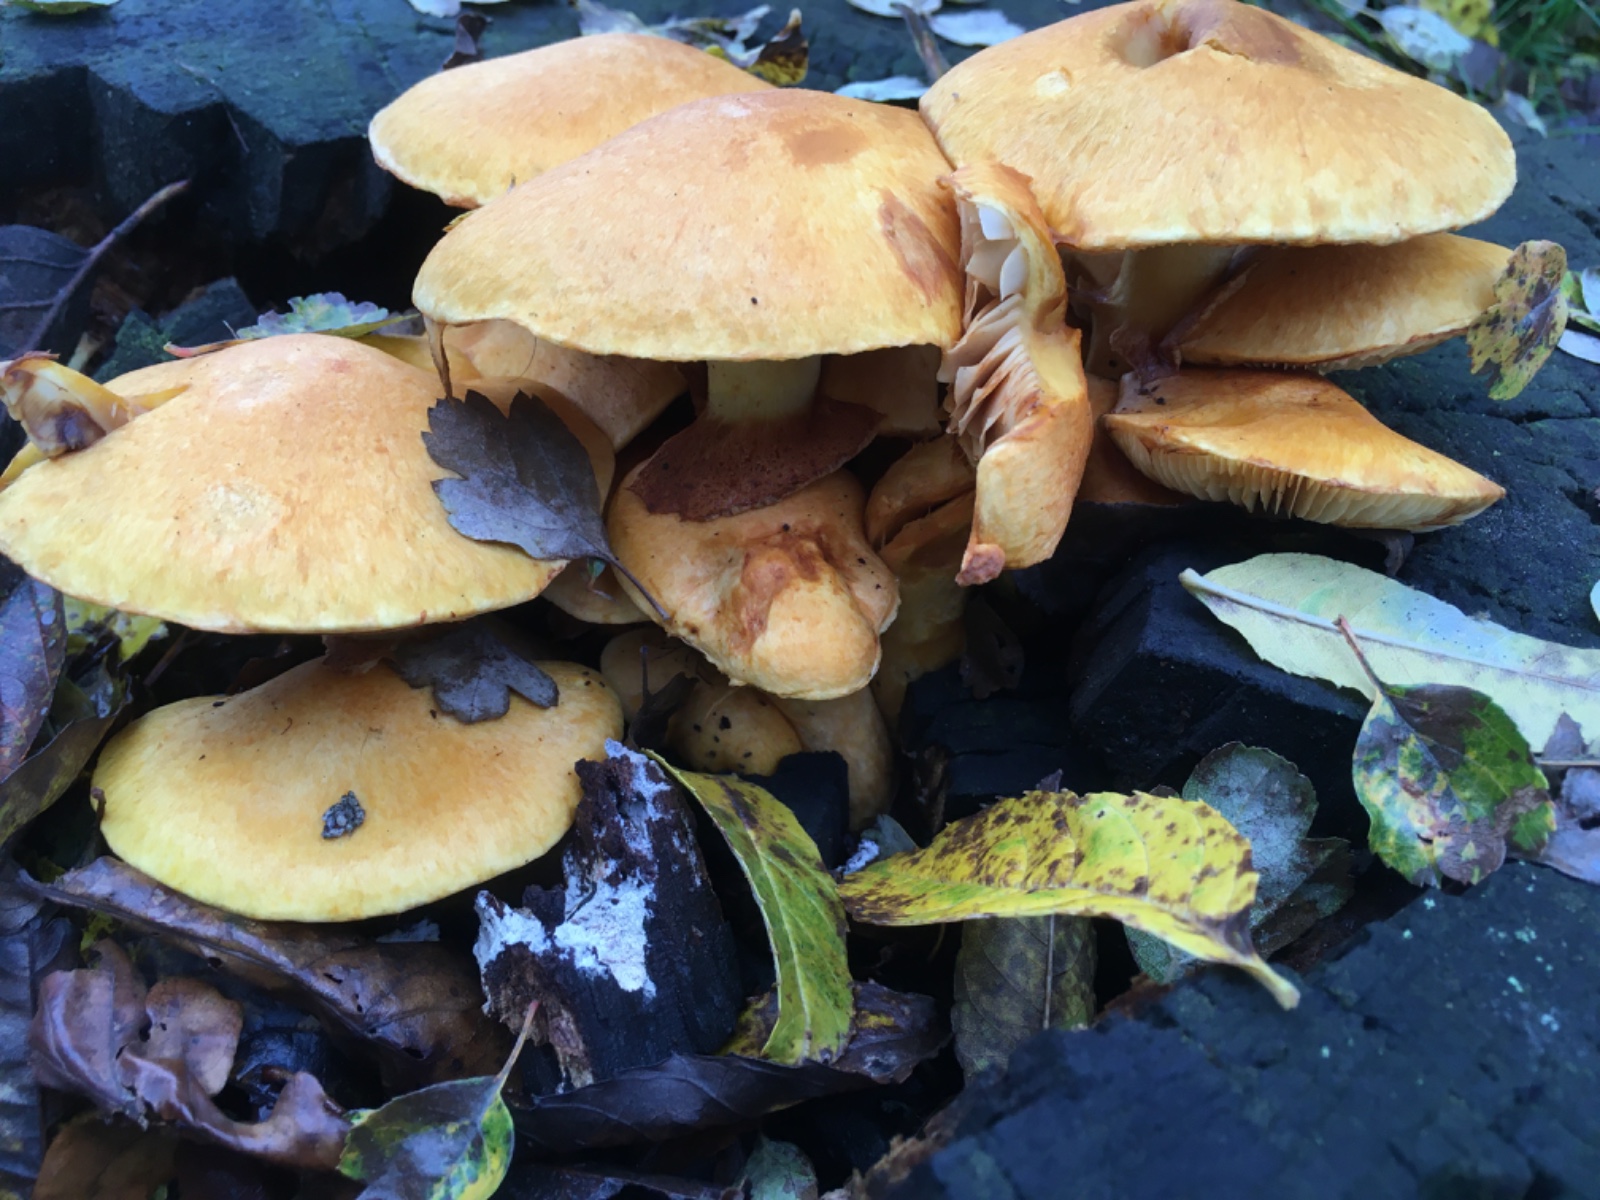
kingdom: Fungi
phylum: Basidiomycota
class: Agaricomycetes
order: Agaricales
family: Hymenogastraceae
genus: Gymnopilus
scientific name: Gymnopilus spectabilis
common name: fibret flammehat
